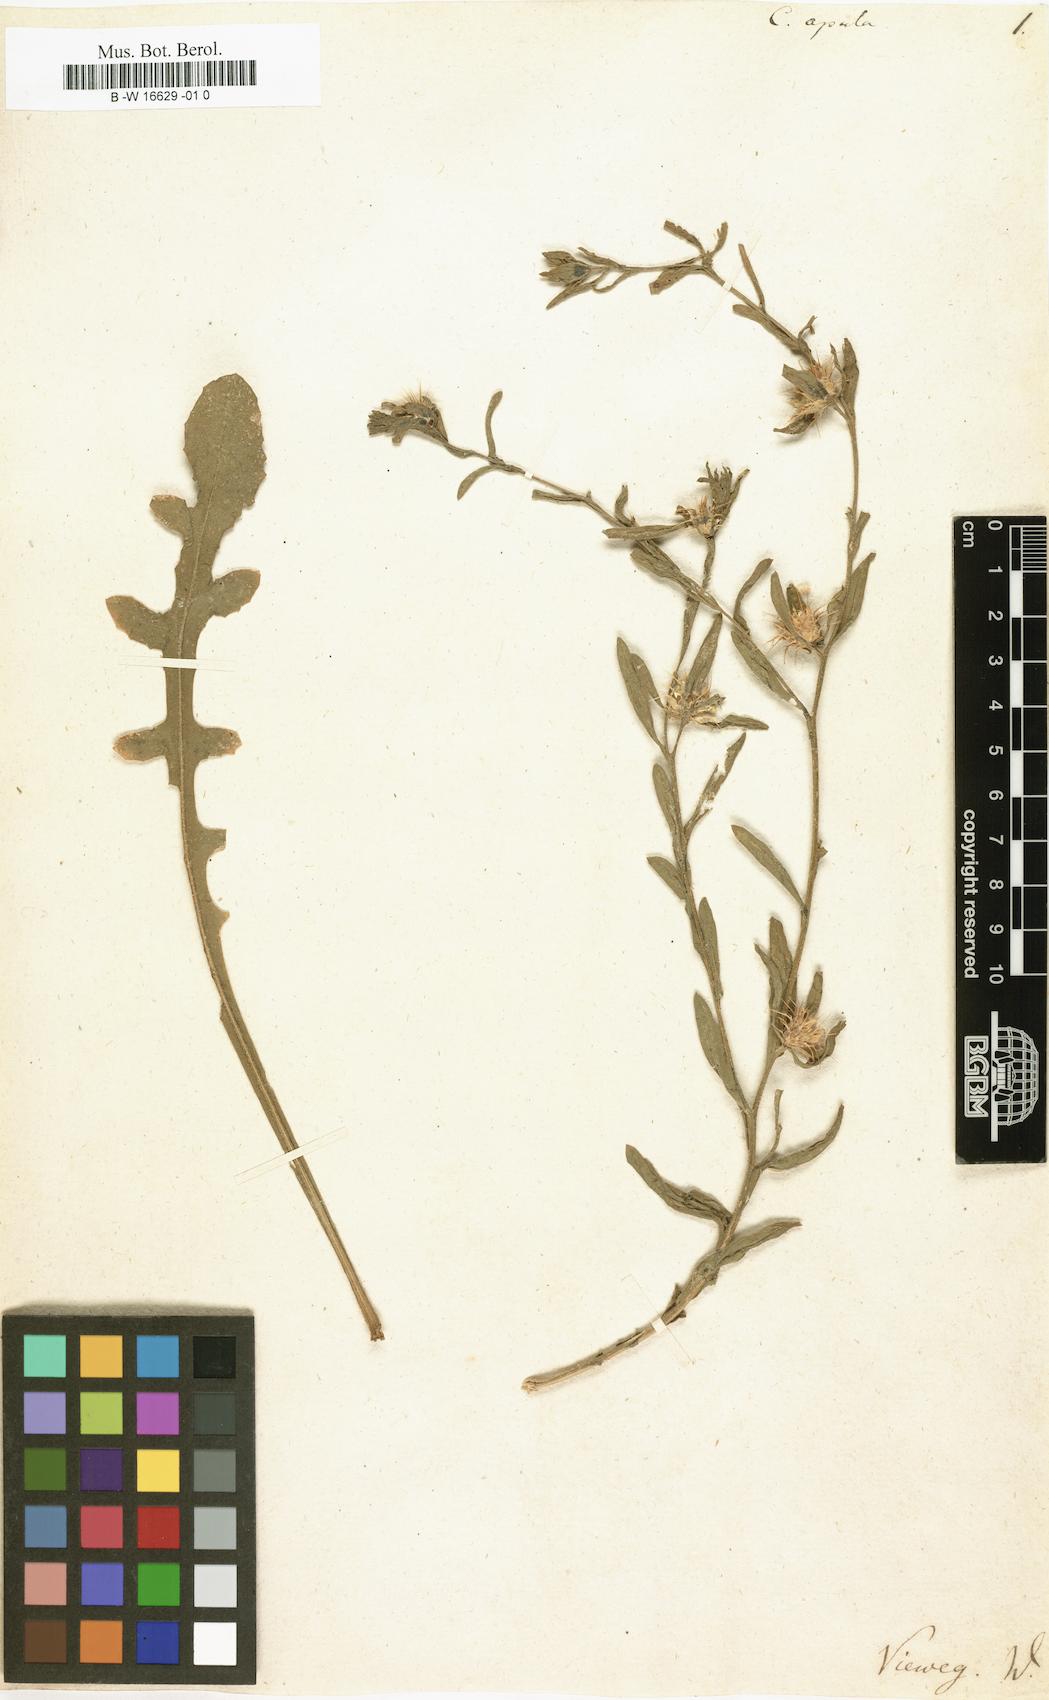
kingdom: Plantae
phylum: Tracheophyta
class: Magnoliopsida
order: Asterales
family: Asteraceae
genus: Centaurea
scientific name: Centaurea
